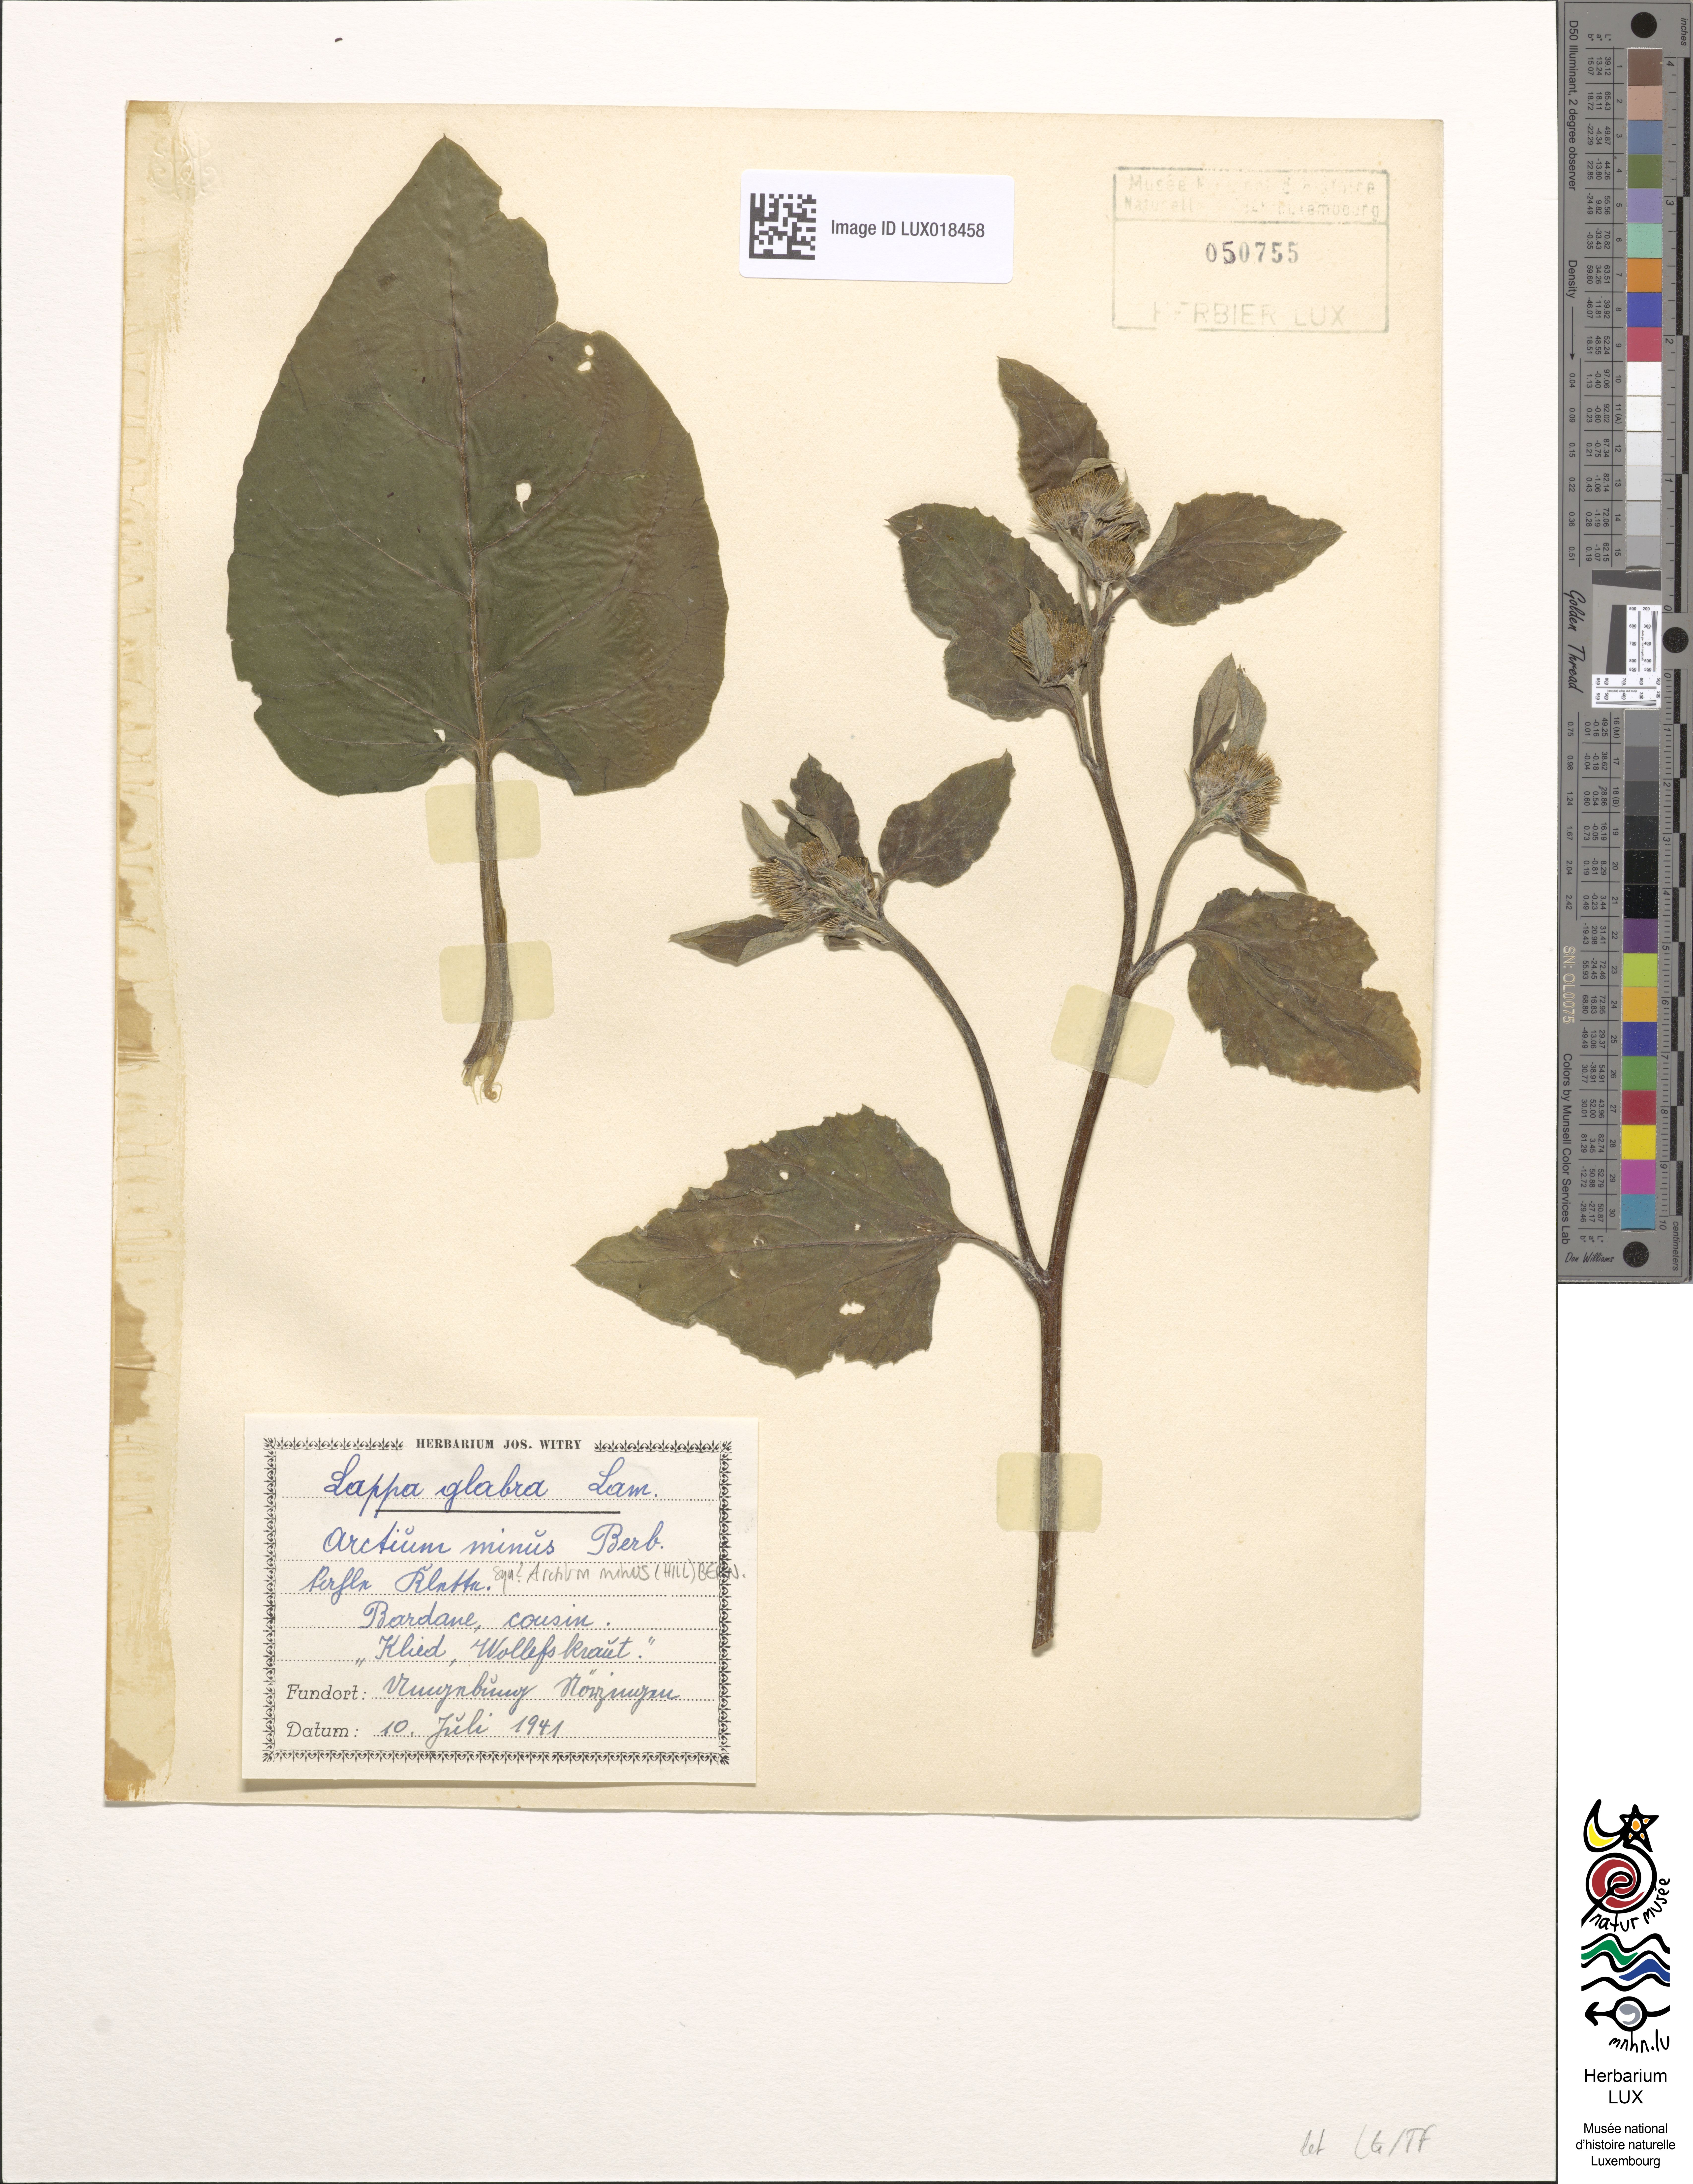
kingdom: Plantae
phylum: Tracheophyta
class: Magnoliopsida
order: Asterales
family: Asteraceae
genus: Arctium
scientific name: Arctium minus
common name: Lesser burdock
